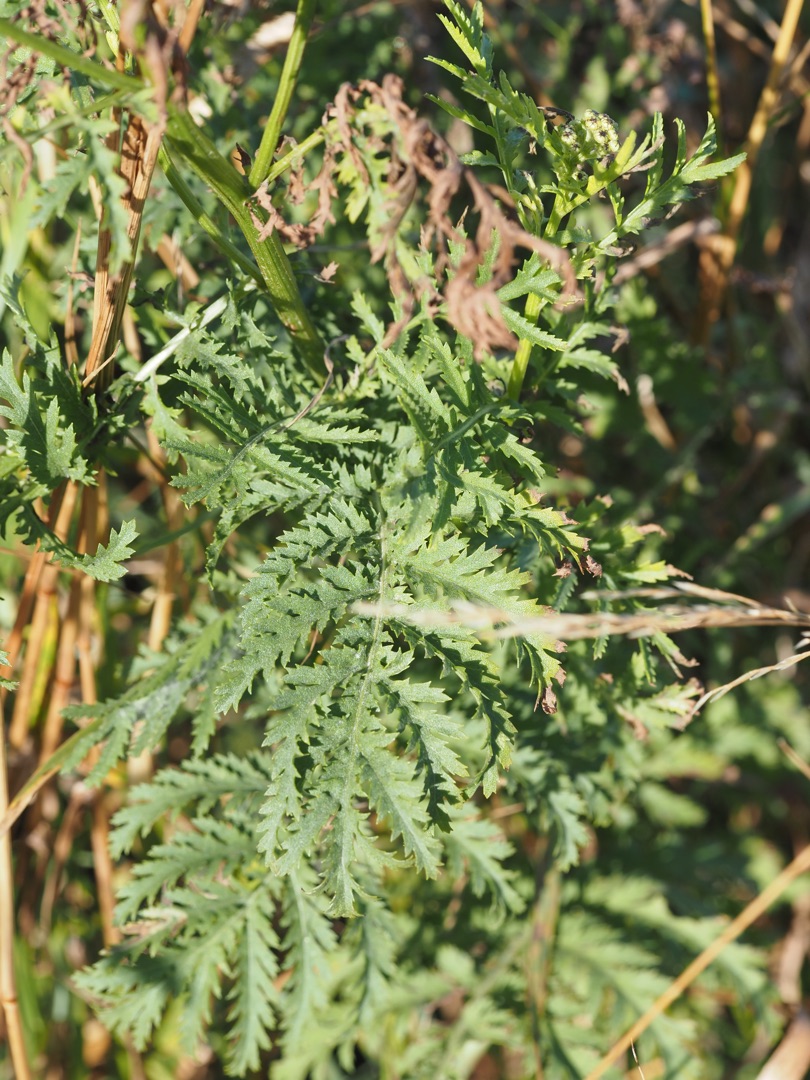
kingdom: Plantae
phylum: Tracheophyta
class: Magnoliopsida
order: Asterales
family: Asteraceae
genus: Tanacetum
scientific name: Tanacetum vulgare
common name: Rejnfan
